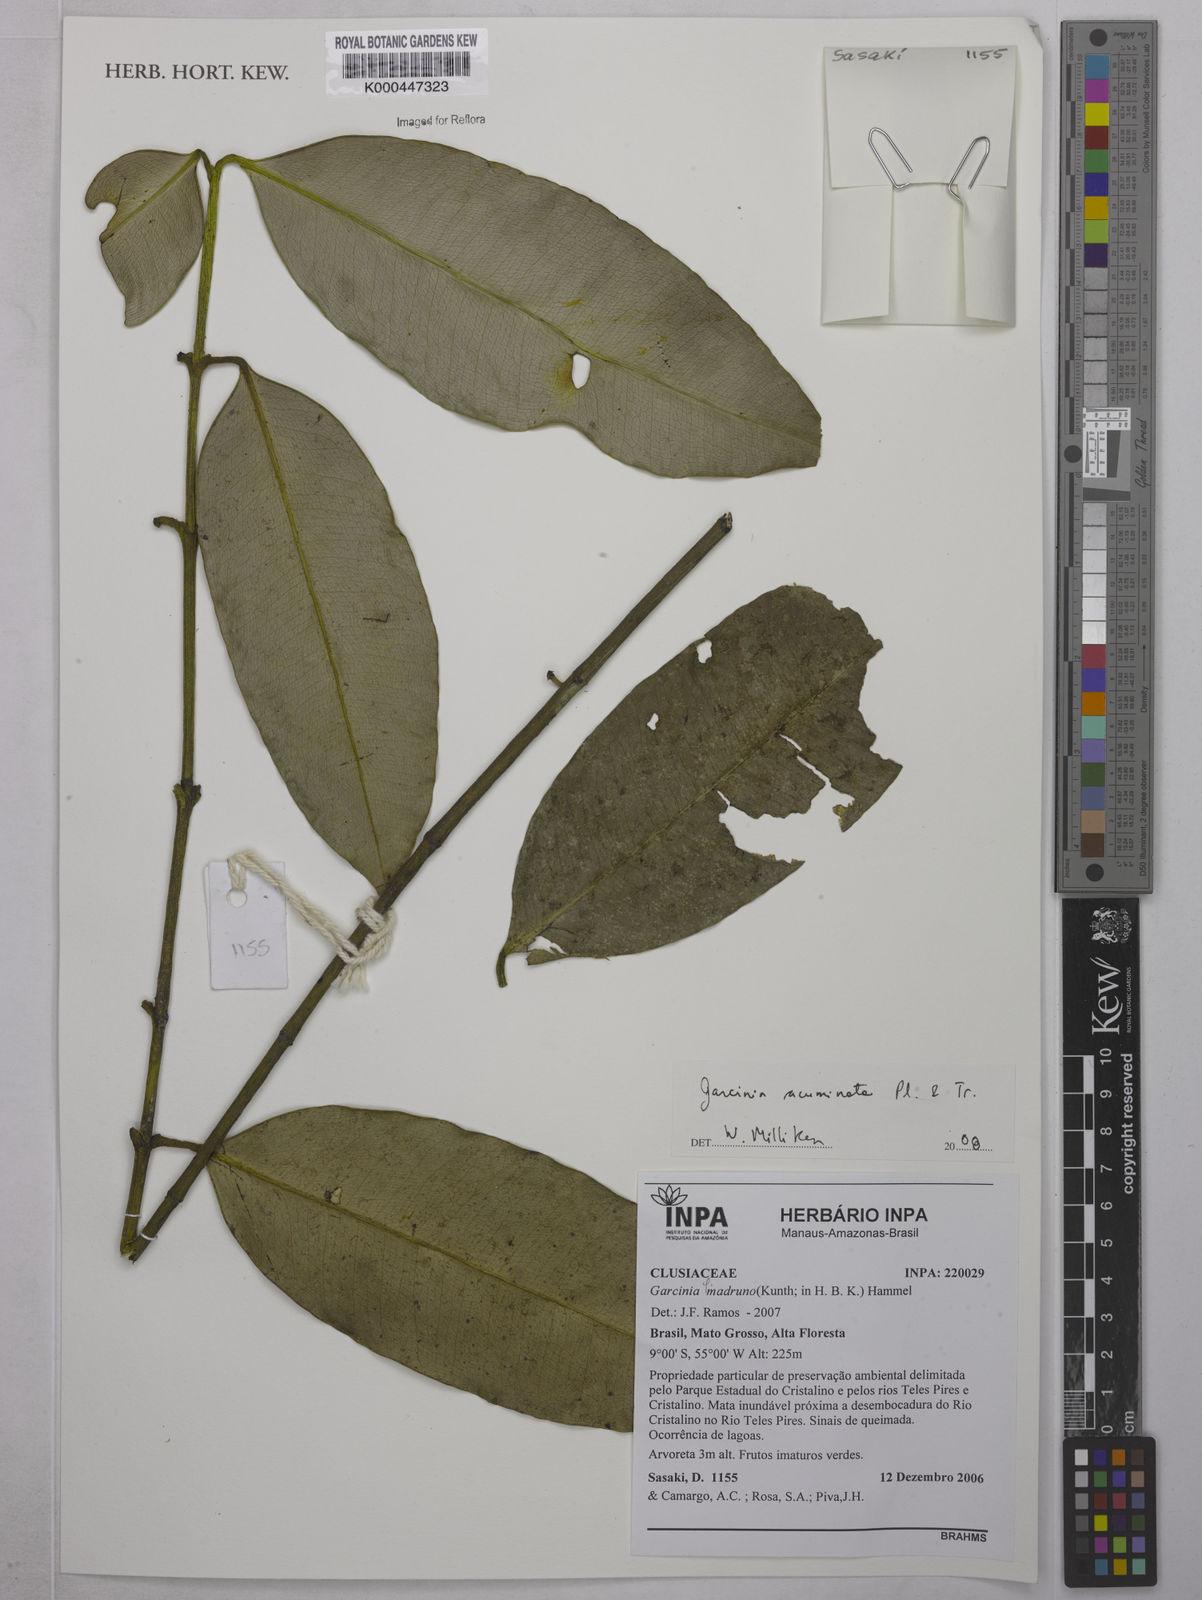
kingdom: Plantae
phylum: Tracheophyta
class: Magnoliopsida
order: Malpighiales
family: Clusiaceae
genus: Garcinia
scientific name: Garcinia acuminata
